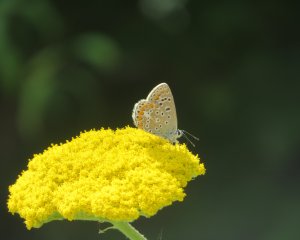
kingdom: Animalia
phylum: Arthropoda
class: Insecta
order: Lepidoptera
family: Lycaenidae
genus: Polyommatus
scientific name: Polyommatus icarus
